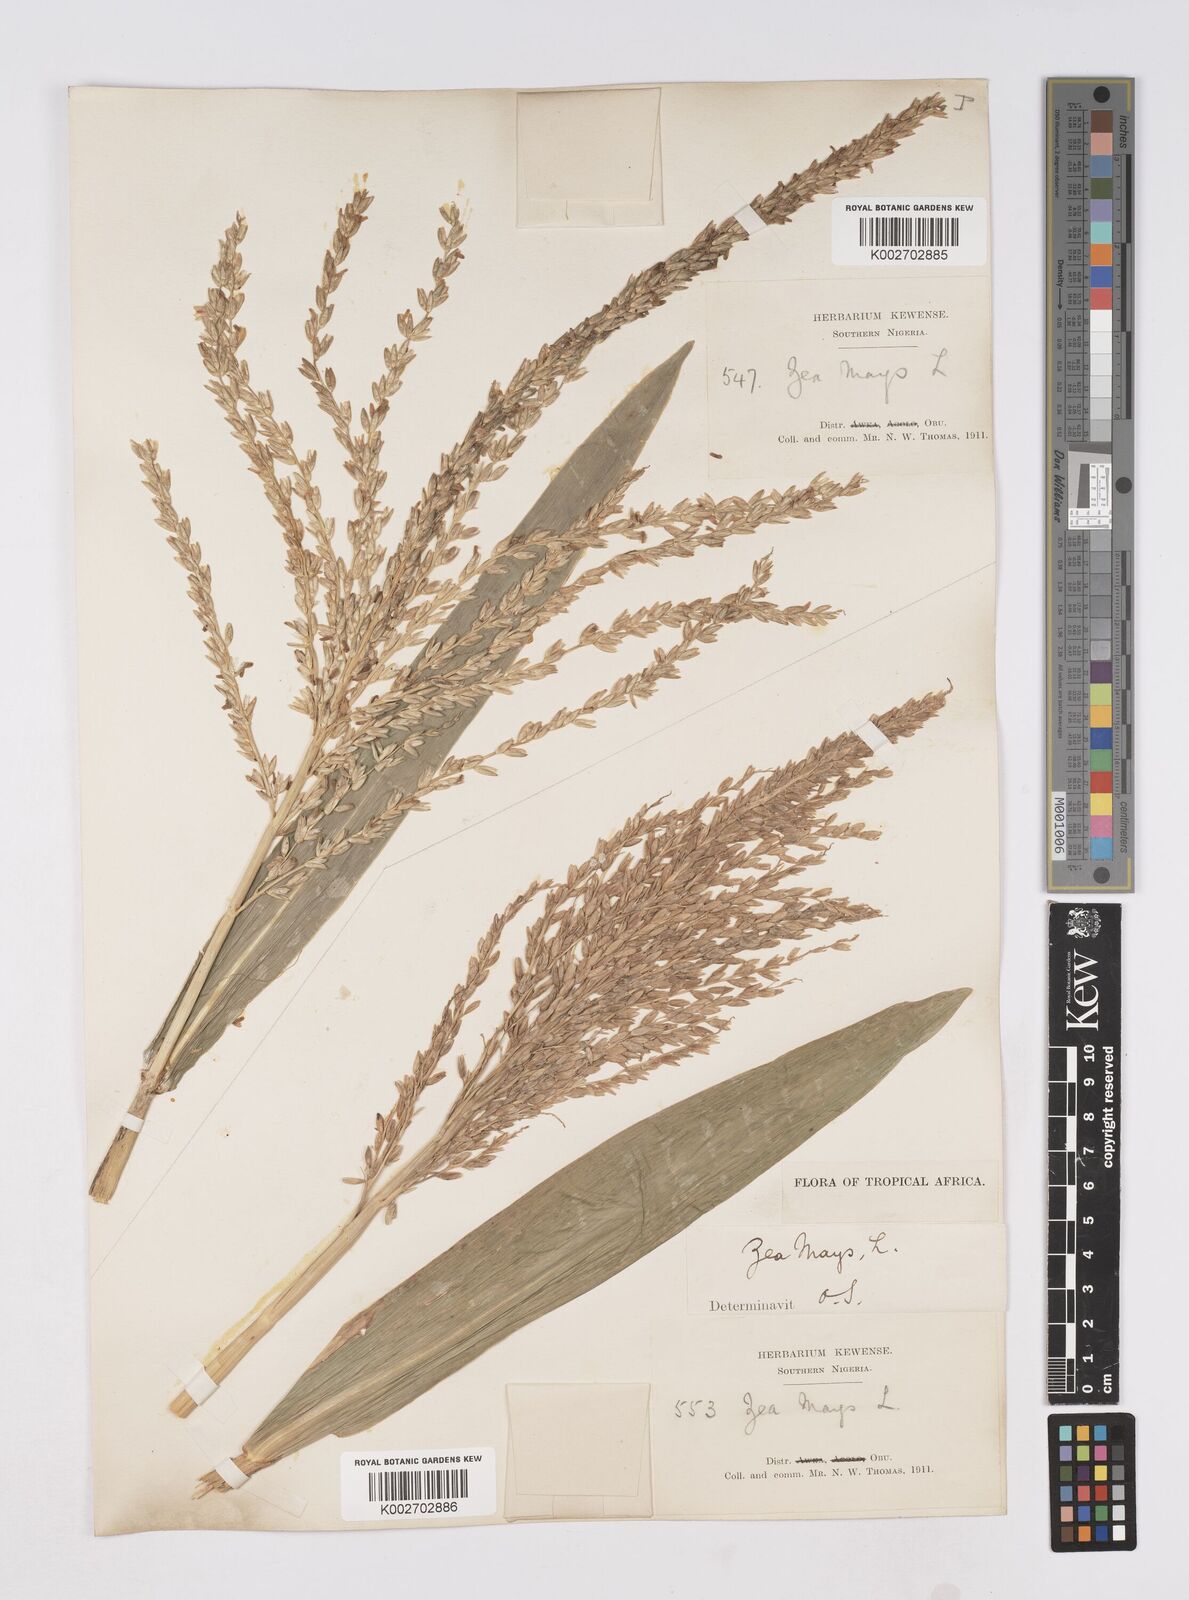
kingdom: Plantae
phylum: Tracheophyta
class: Liliopsida
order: Poales
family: Poaceae
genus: Zea
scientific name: Zea mays
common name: Maize
